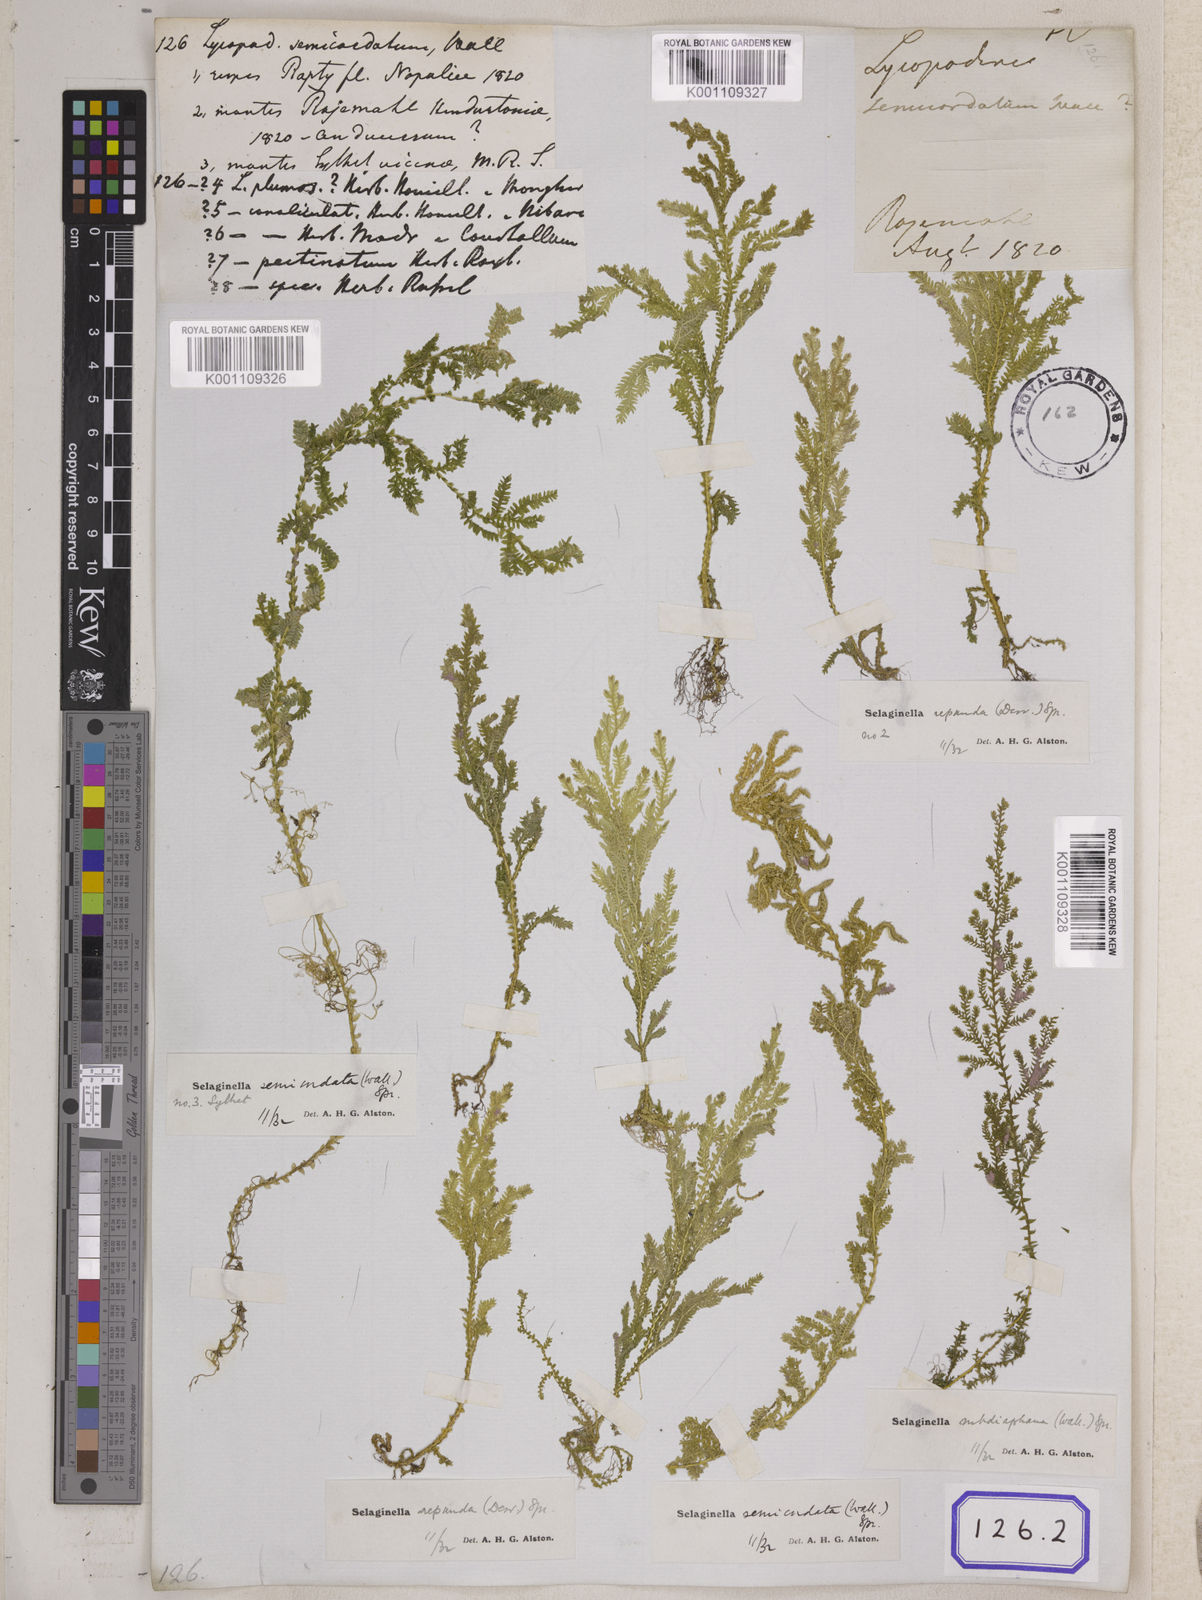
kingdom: Plantae
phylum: Tracheophyta
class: Lycopodiopsida
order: Selaginellales
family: Selaginellaceae
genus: Selaginella
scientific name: Selaginella semicordata
